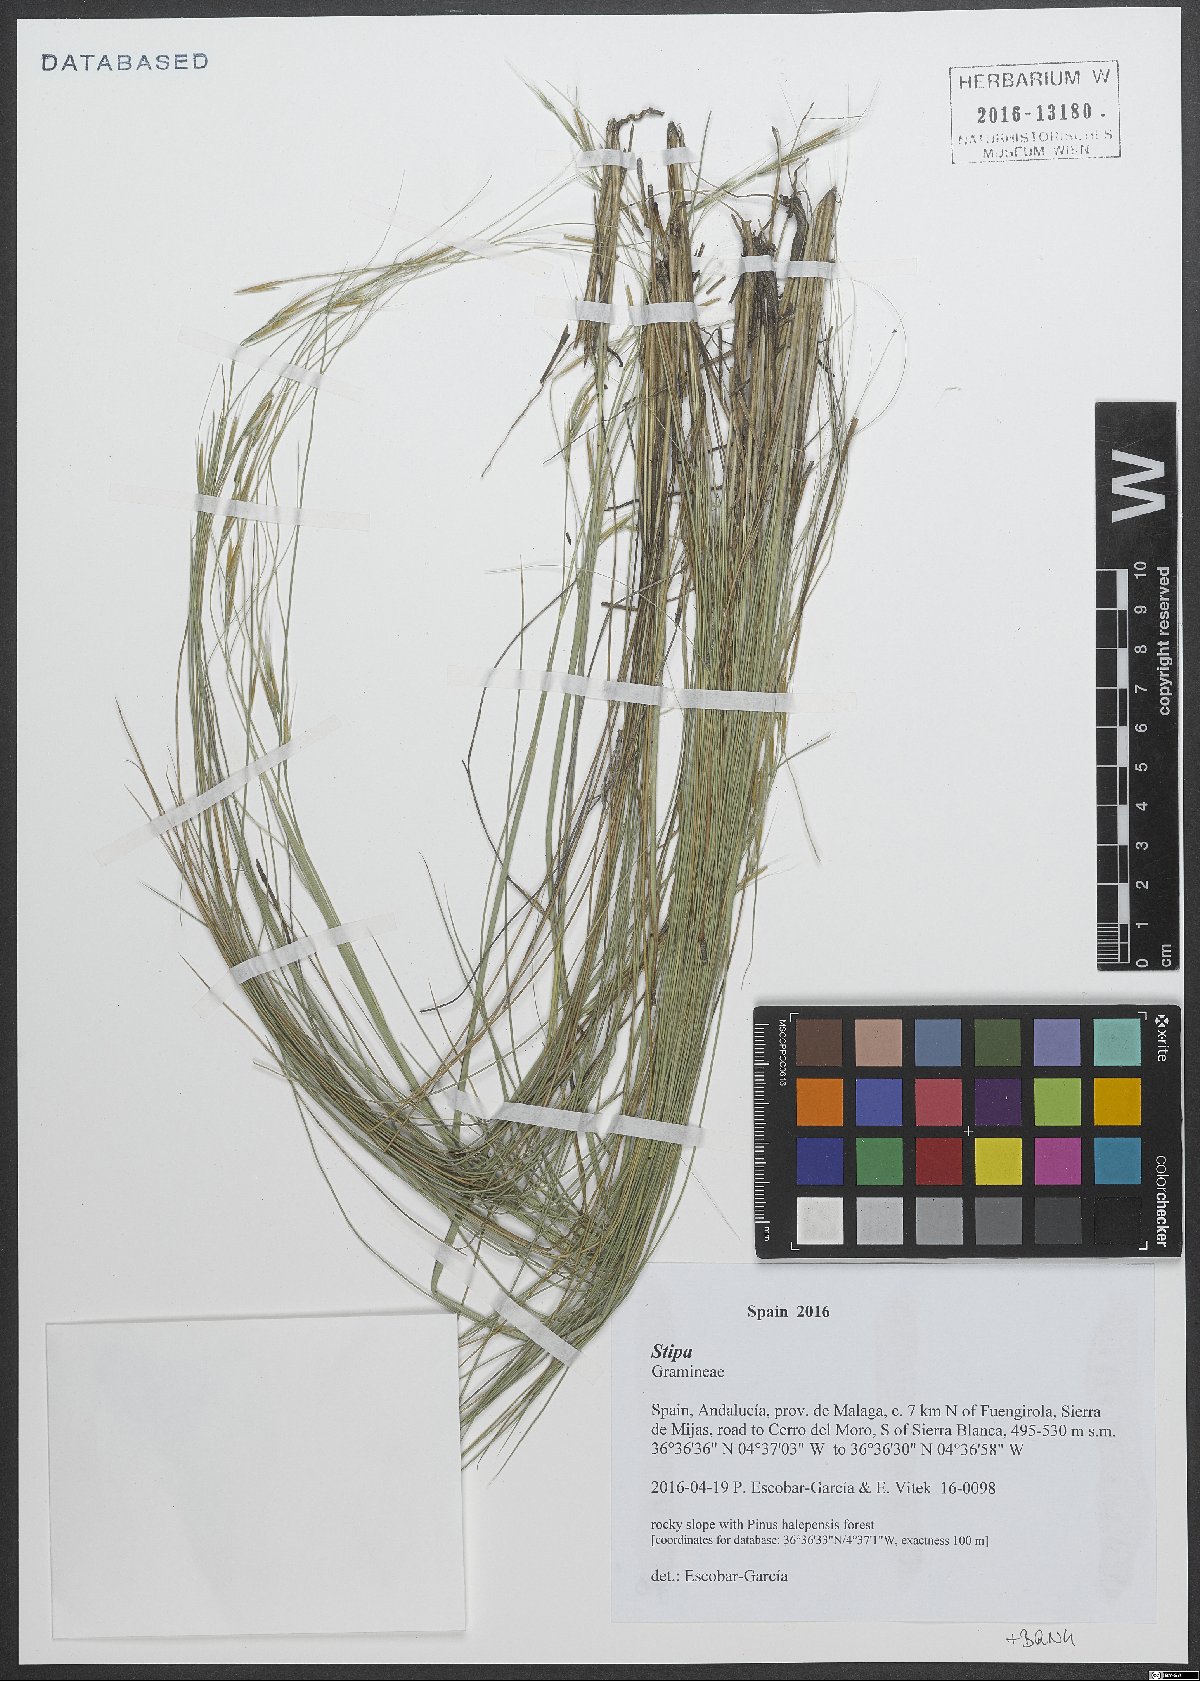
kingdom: Plantae
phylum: Tracheophyta
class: Liliopsida
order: Poales
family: Poaceae
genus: Stipa
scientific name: Stipa
